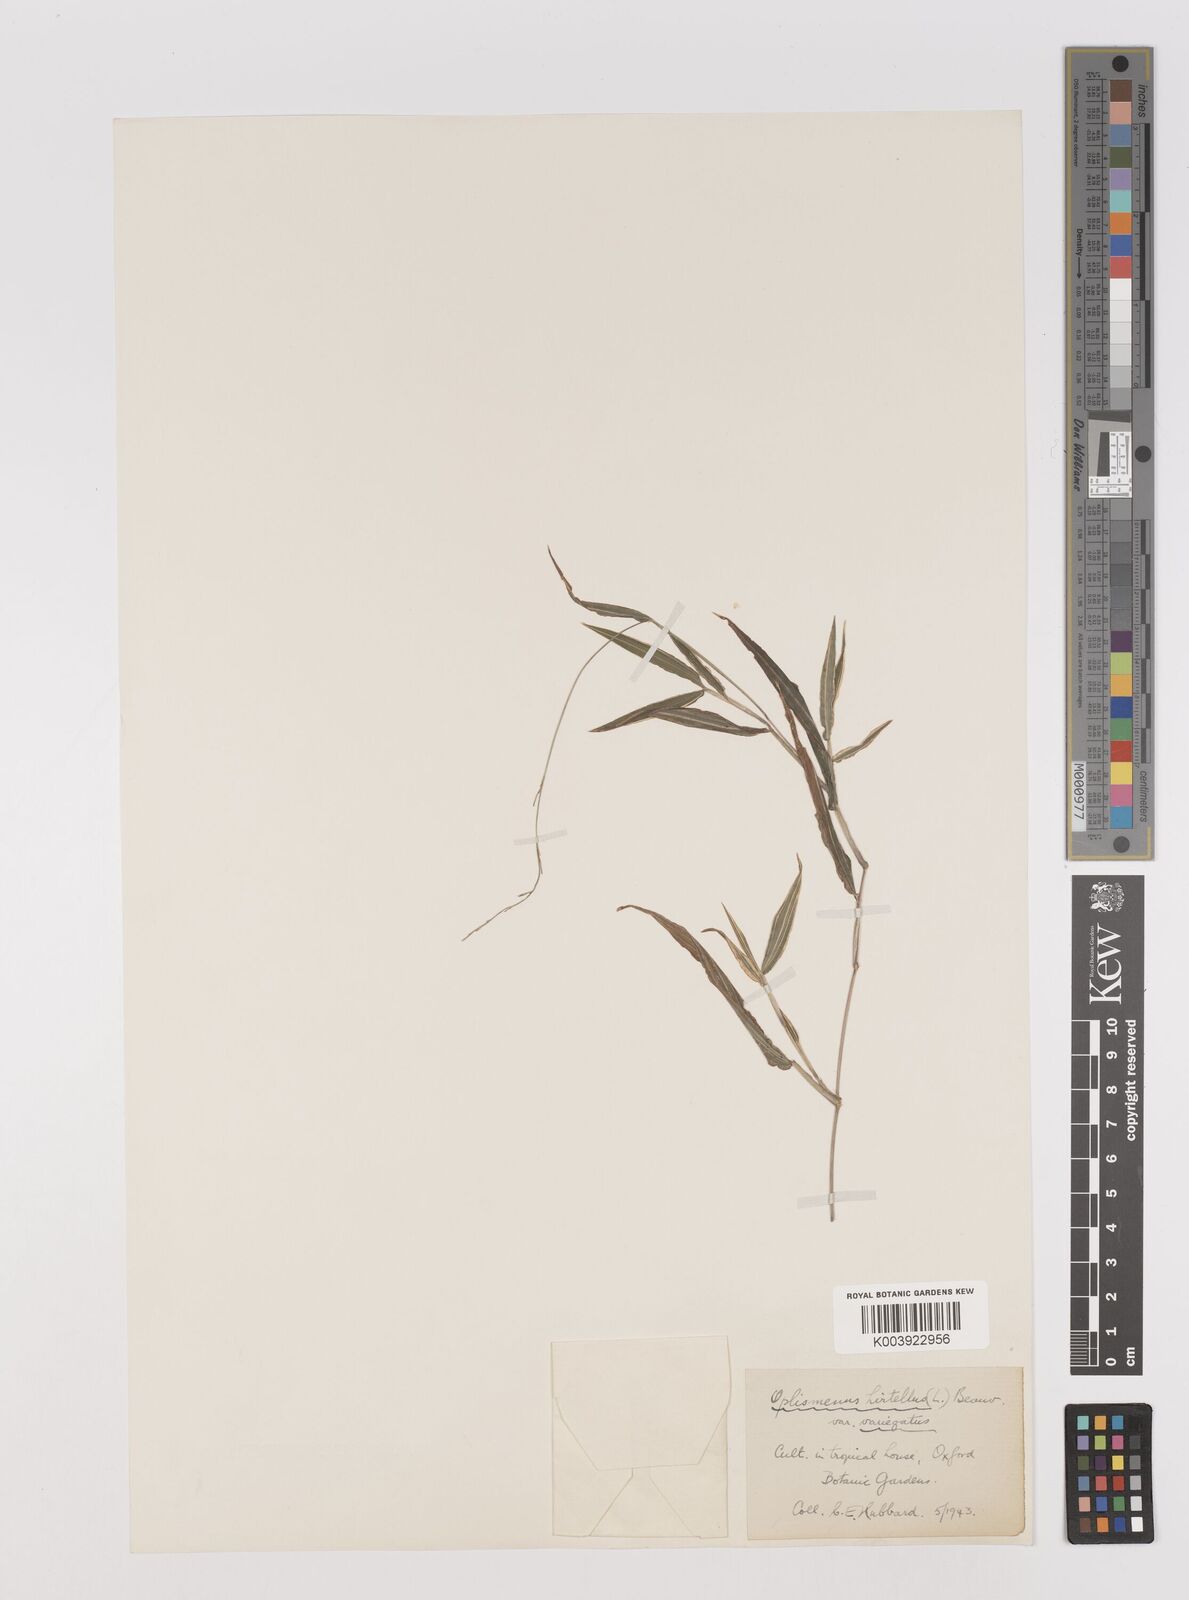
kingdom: Plantae
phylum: Tracheophyta
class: Liliopsida
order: Poales
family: Poaceae
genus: Oplismenus
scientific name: Oplismenus hirtellus
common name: Basketgrass
